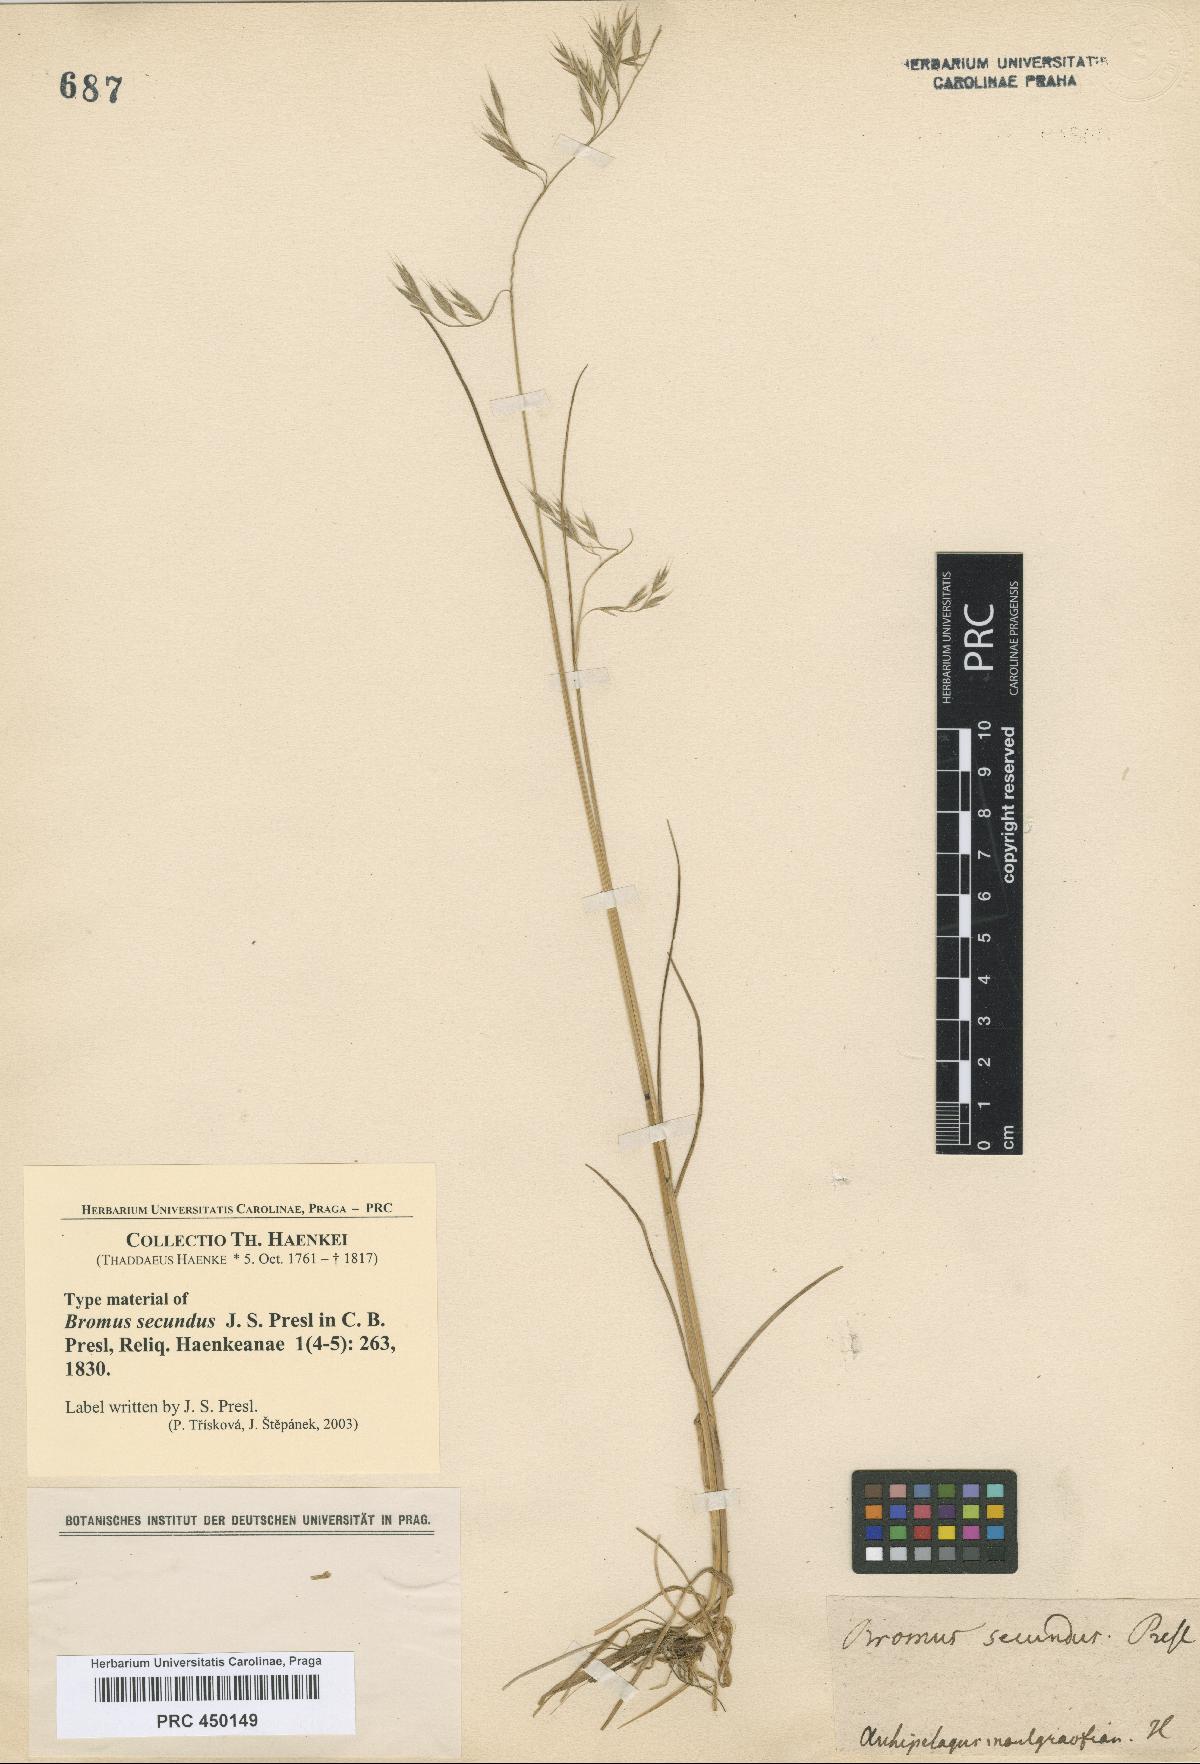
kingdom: Plantae
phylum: Tracheophyta
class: Liliopsida
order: Poales
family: Poaceae
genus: Festuca
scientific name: Festuca rubra
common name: Red fescue
